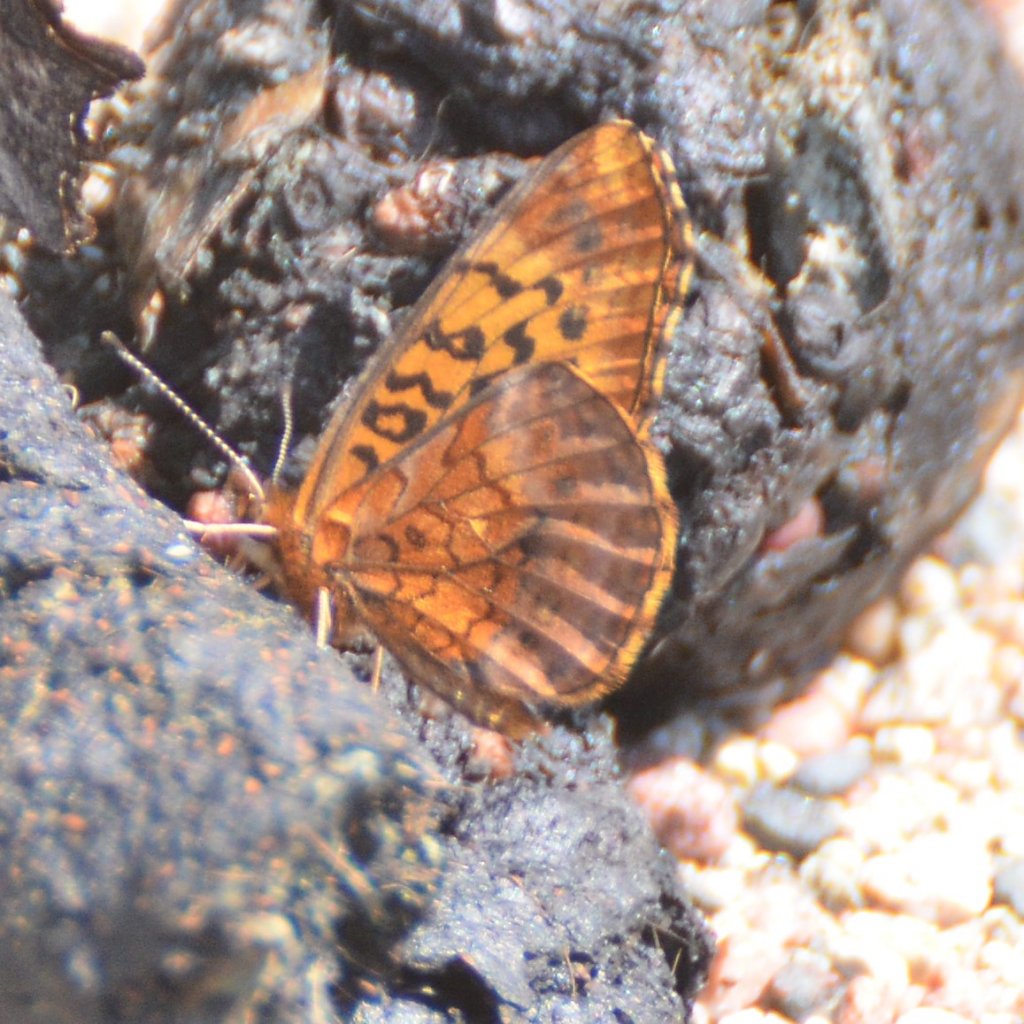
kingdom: Animalia
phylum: Arthropoda
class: Insecta
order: Lepidoptera
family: Nymphalidae
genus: Clossiana
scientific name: Clossiana toddi
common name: Meadow Fritillary
